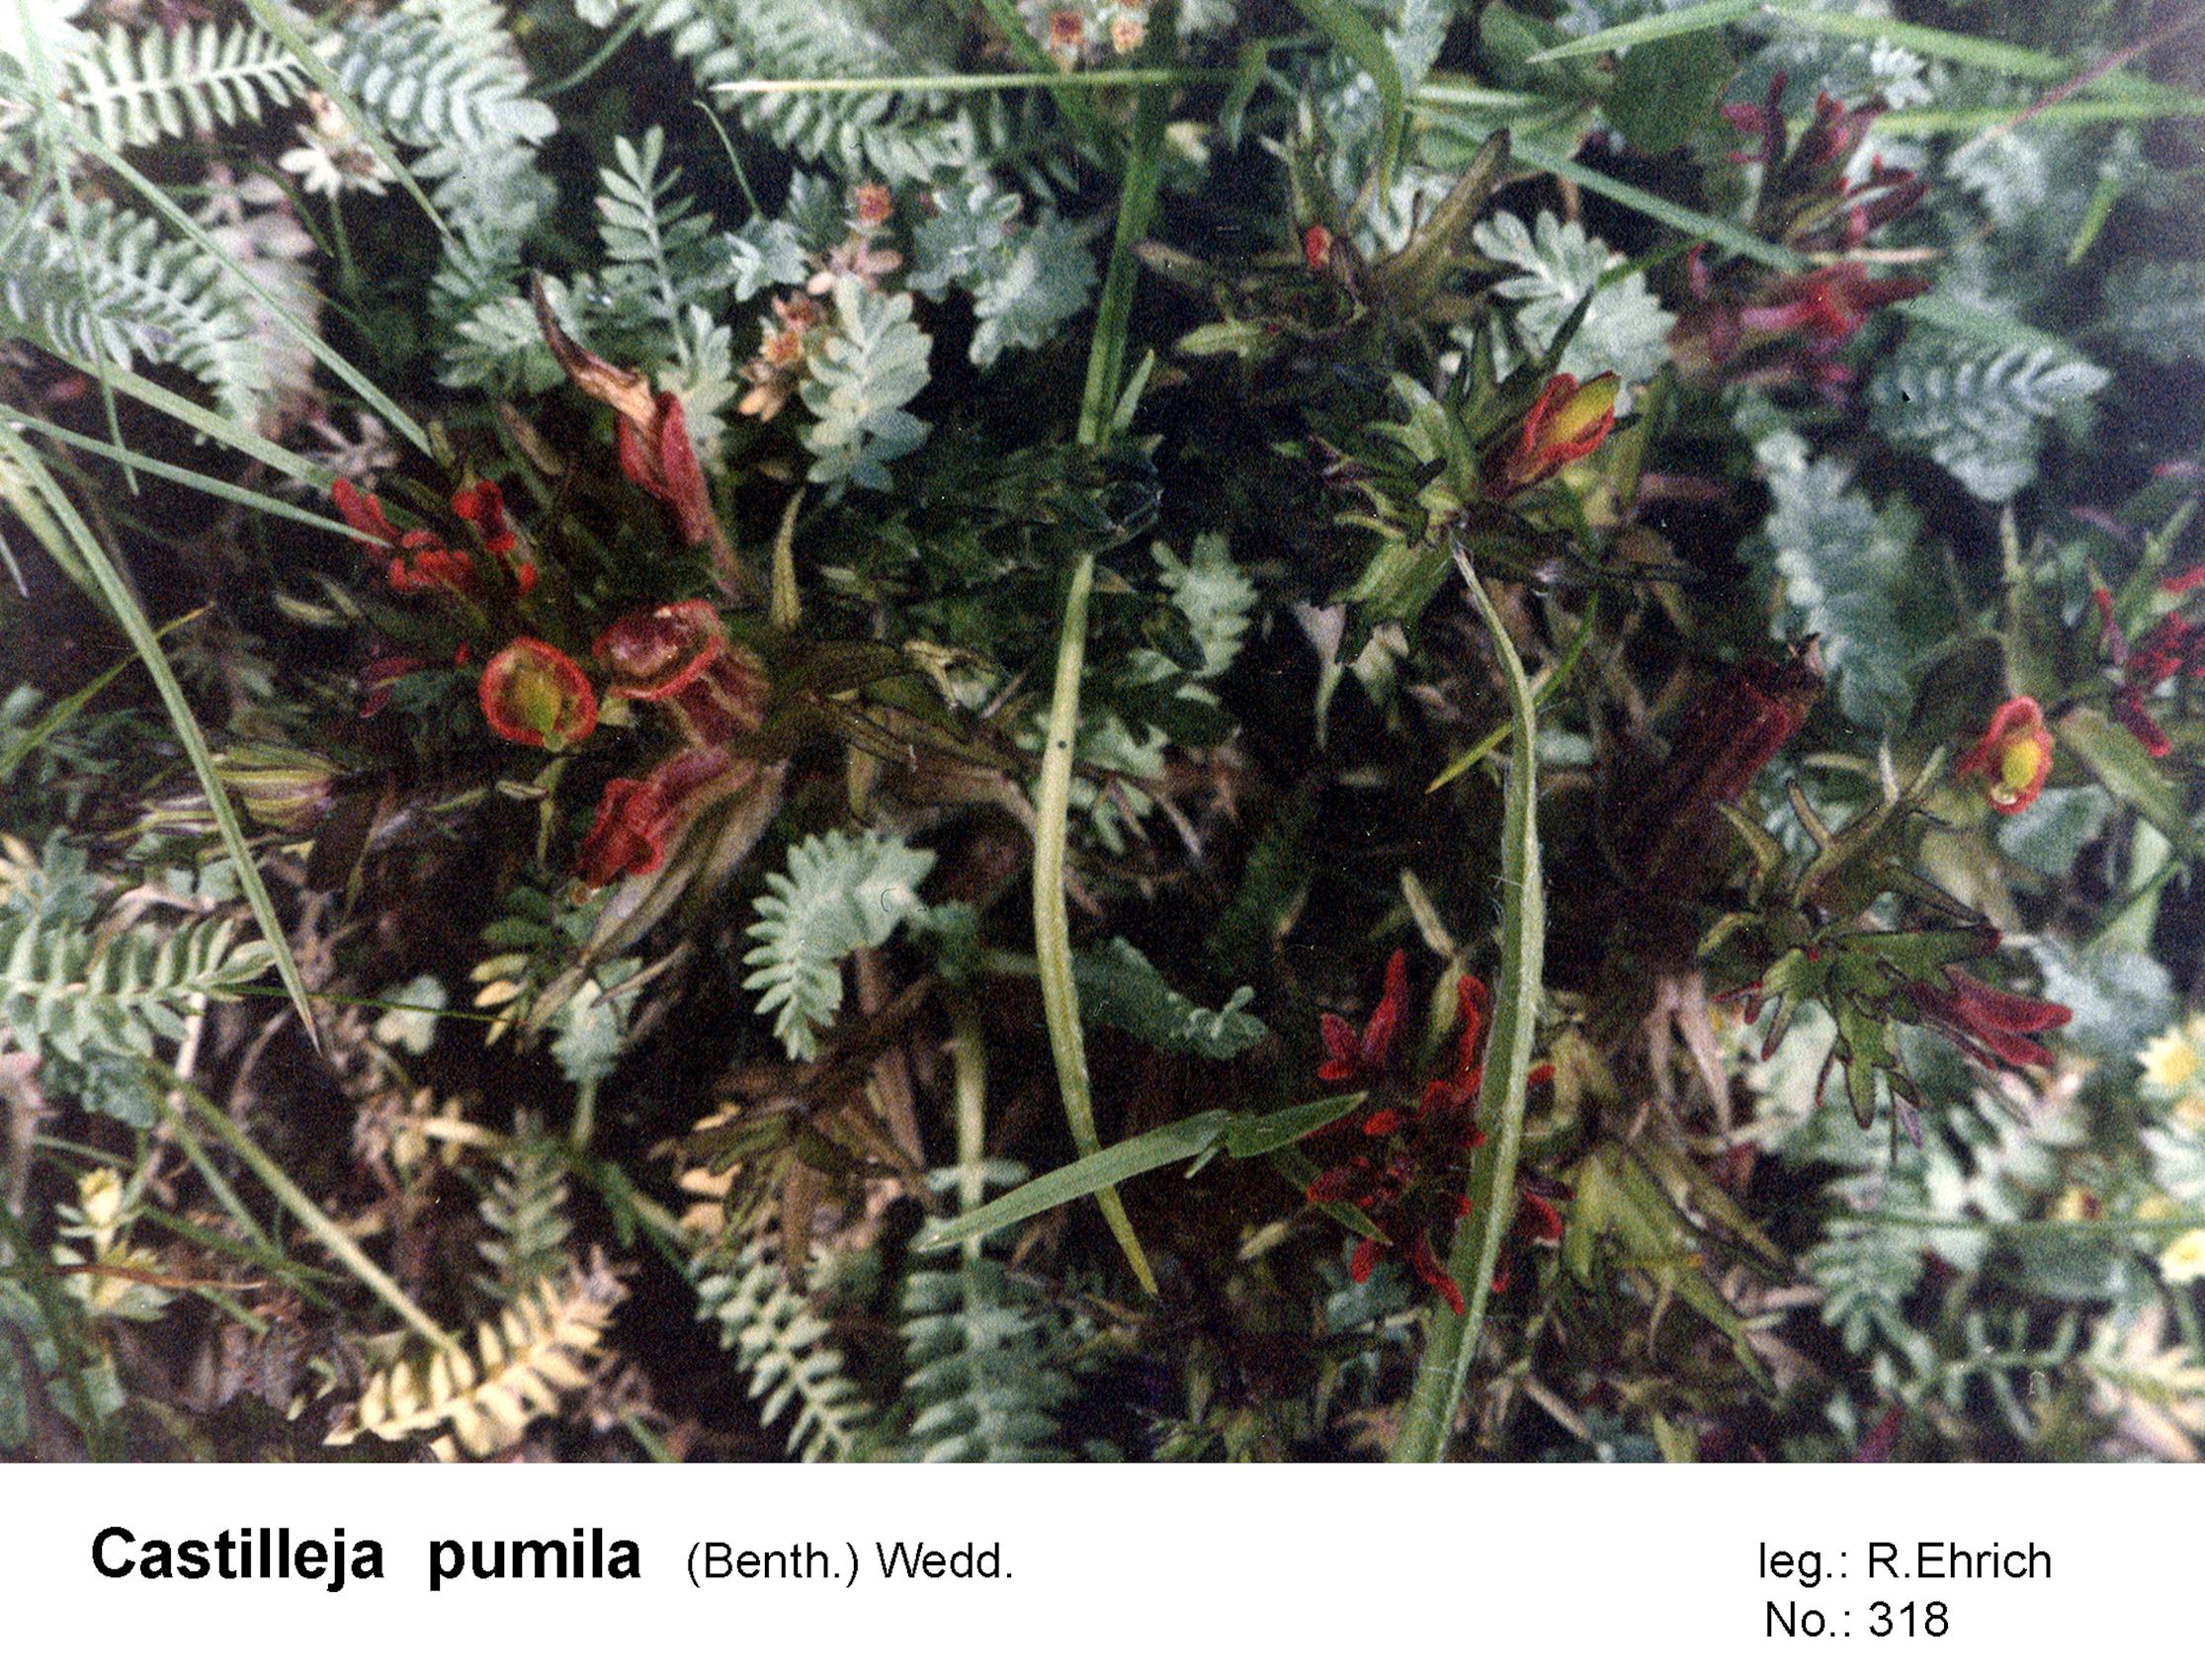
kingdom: Plantae
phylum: Tracheophyta
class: Magnoliopsida
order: Lamiales
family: Orobanchaceae
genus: Castilleja
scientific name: Castilleja pumila
